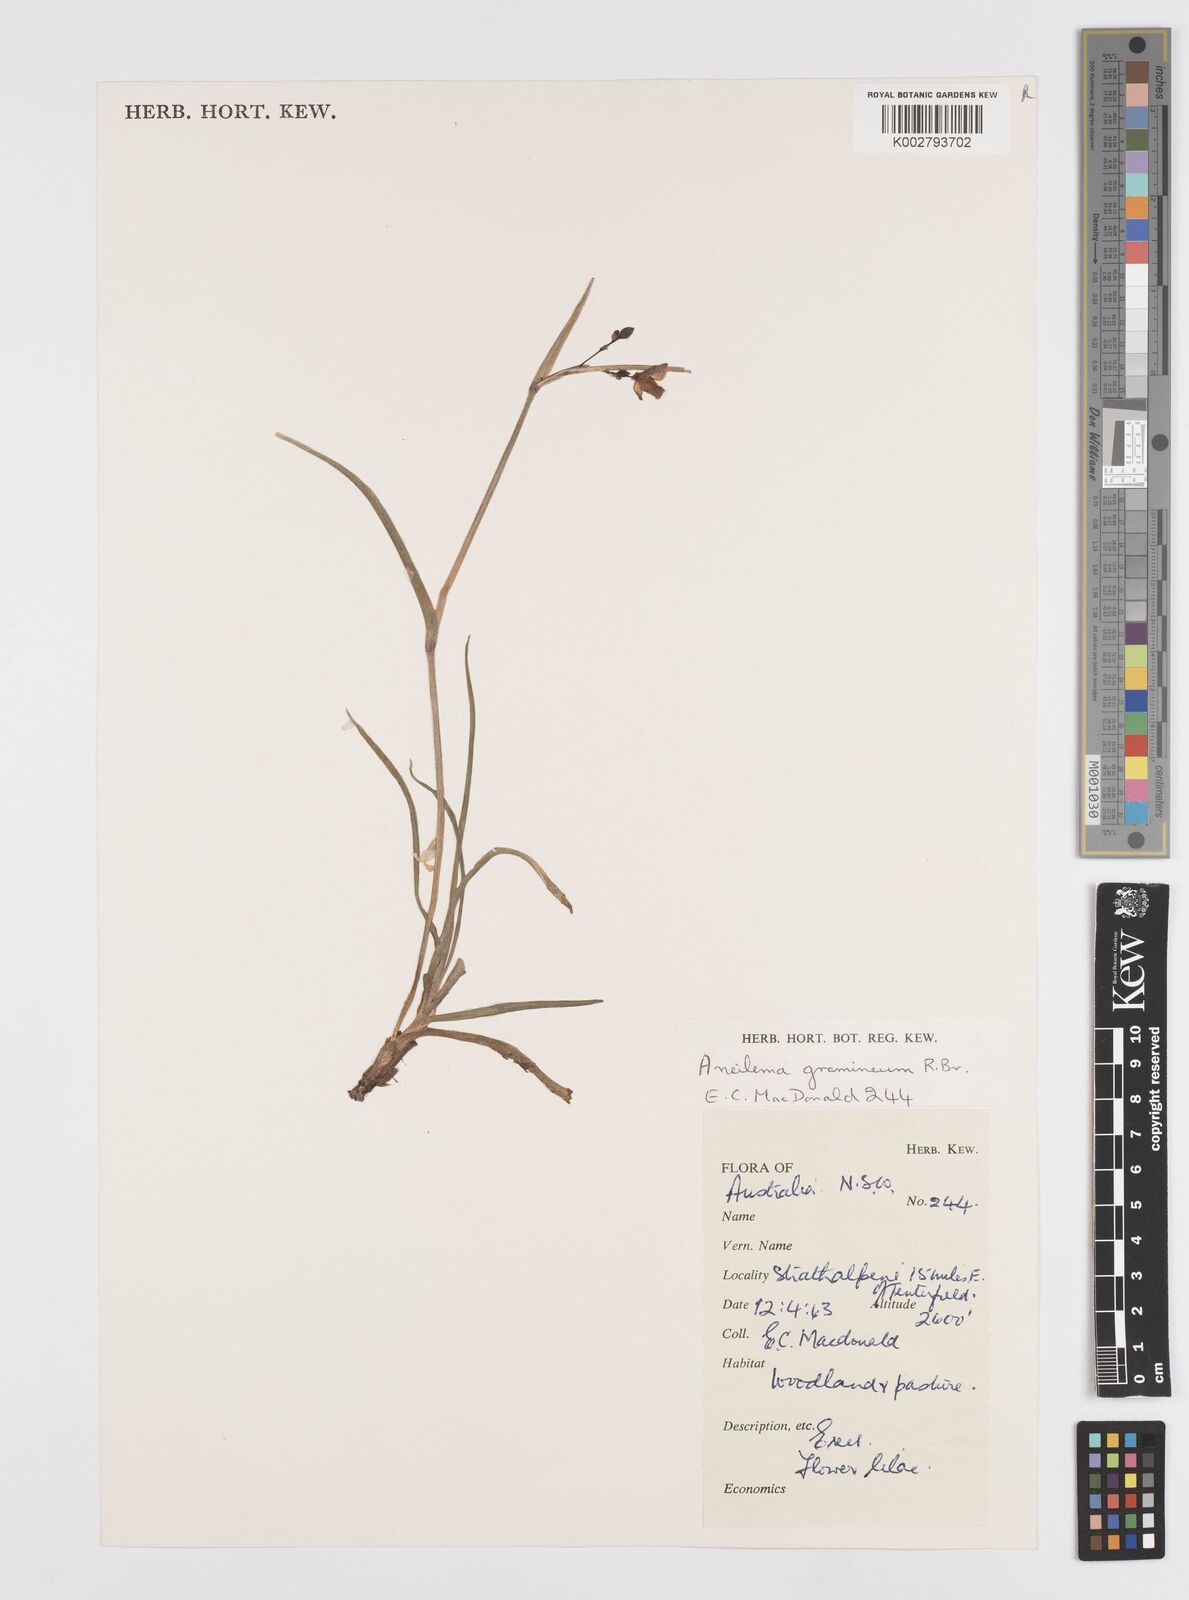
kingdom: Plantae
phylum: Tracheophyta
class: Liliopsida
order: Commelinales
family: Commelinaceae
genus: Murdannia
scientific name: Murdannia graminea
